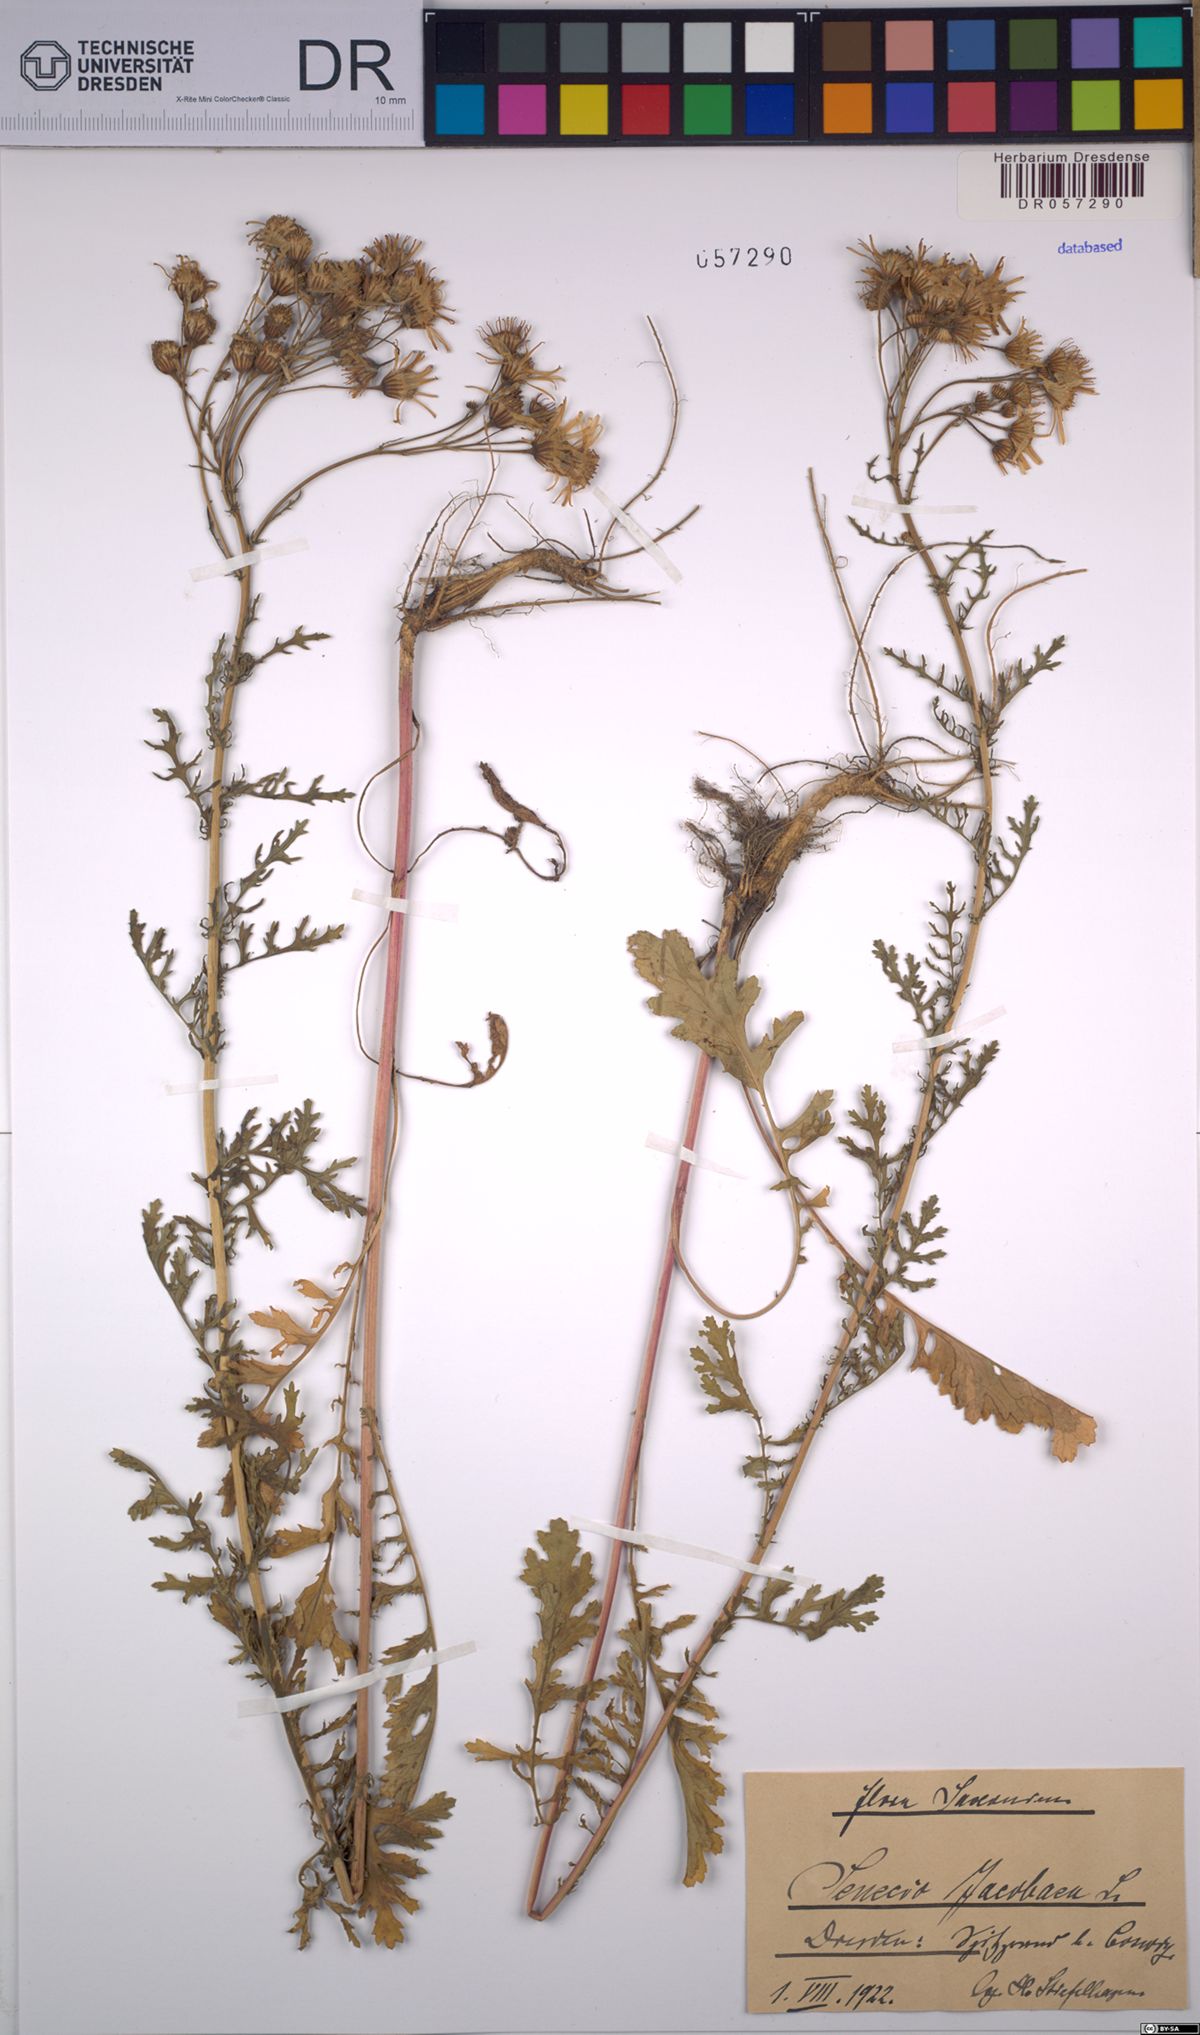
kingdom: Plantae
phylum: Tracheophyta
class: Magnoliopsida
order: Asterales
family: Asteraceae
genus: Jacobaea
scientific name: Jacobaea vulgaris
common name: Stinking willie
